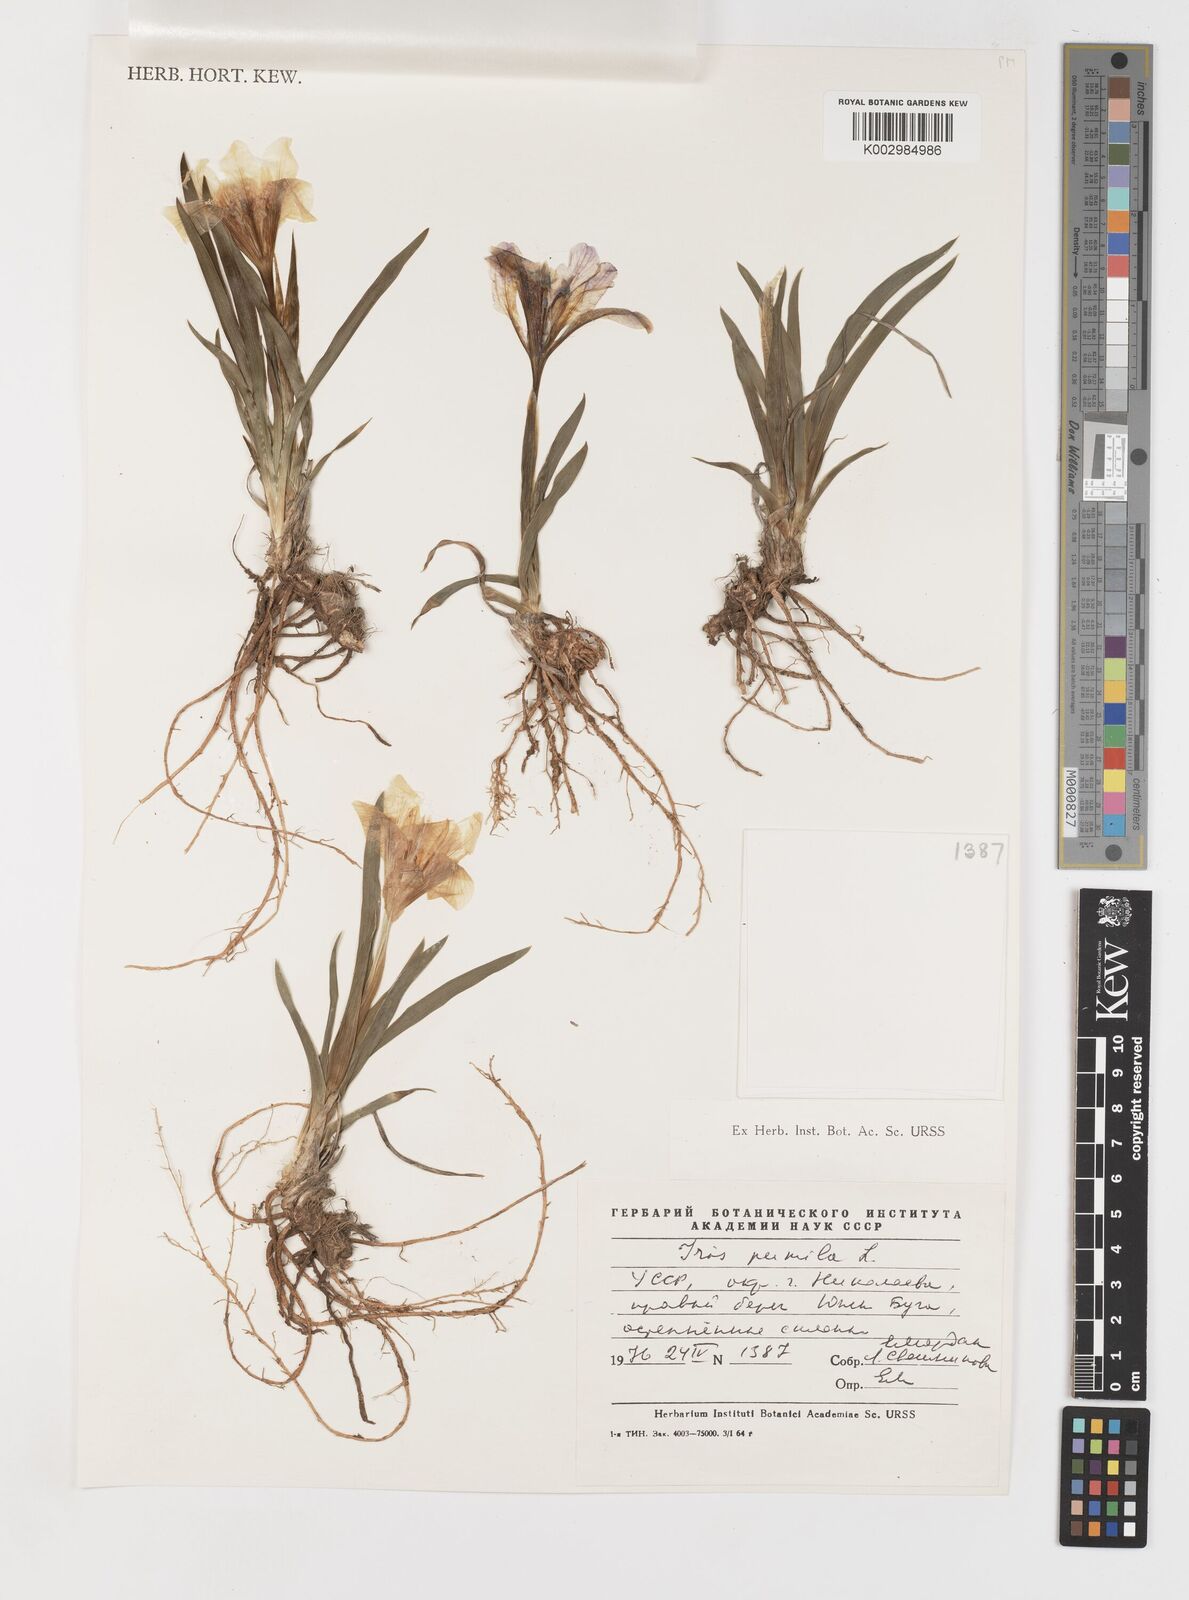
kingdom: Plantae
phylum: Tracheophyta
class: Liliopsida
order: Asparagales
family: Iridaceae
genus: Iris
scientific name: Iris pumila
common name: Dwarf iris
